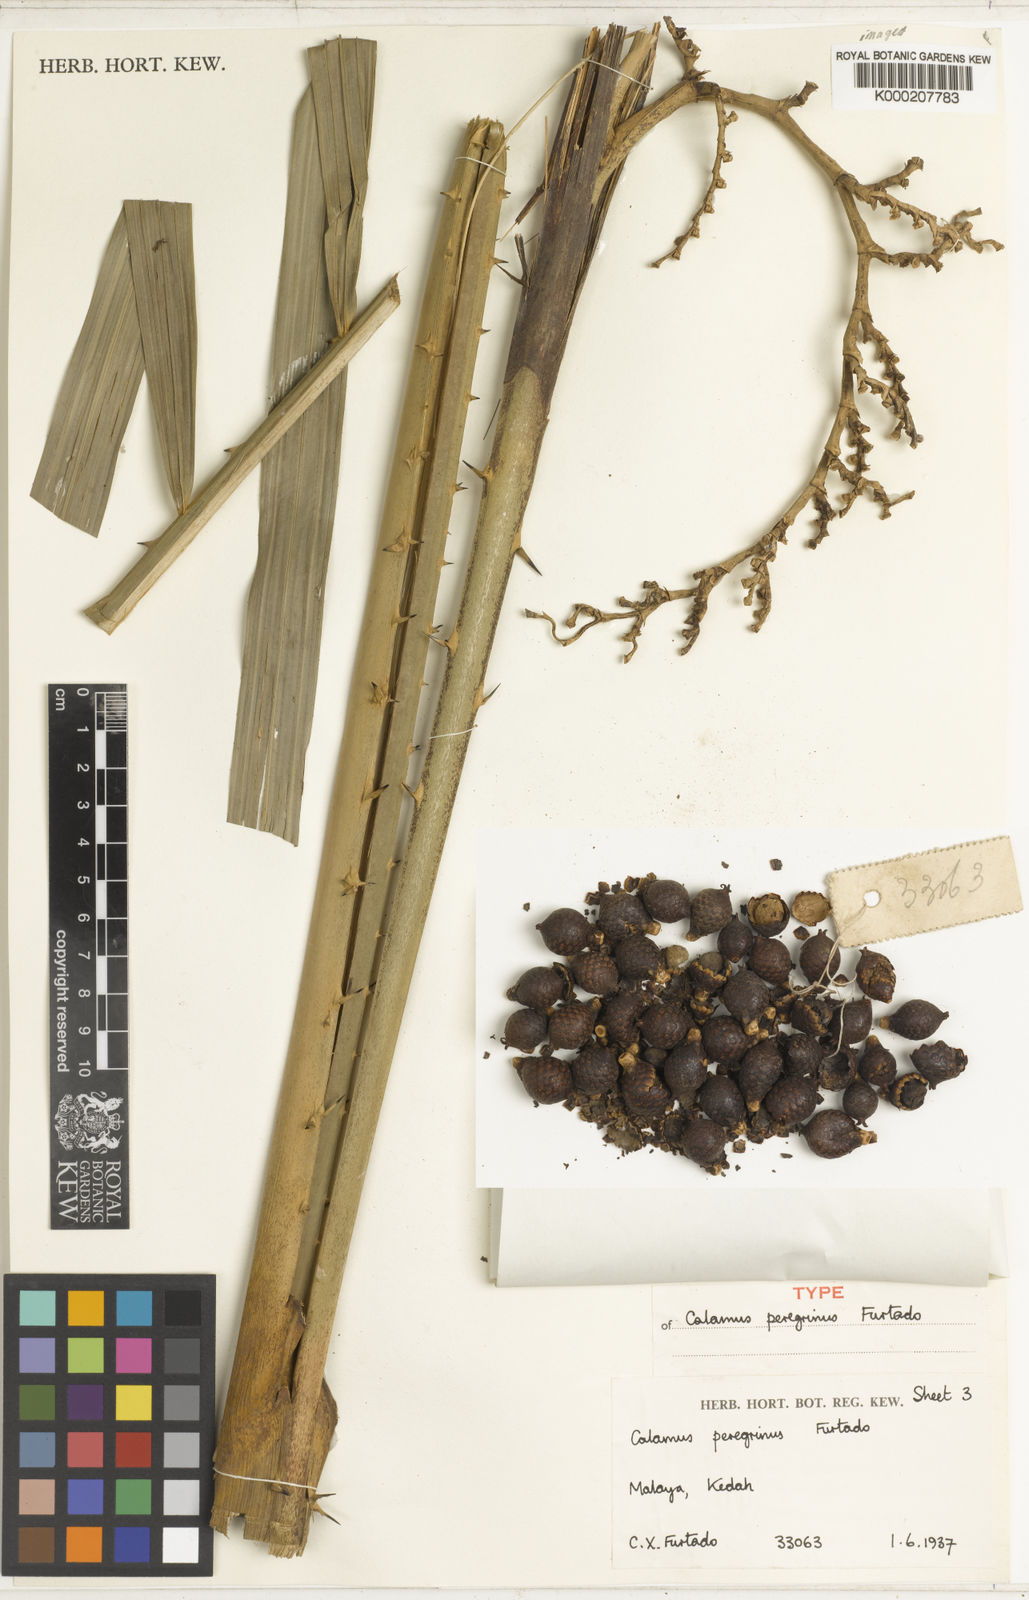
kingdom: Plantae
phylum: Tracheophyta
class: Liliopsida
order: Arecales
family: Arecaceae
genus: Calamus
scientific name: Calamus peregrinus
